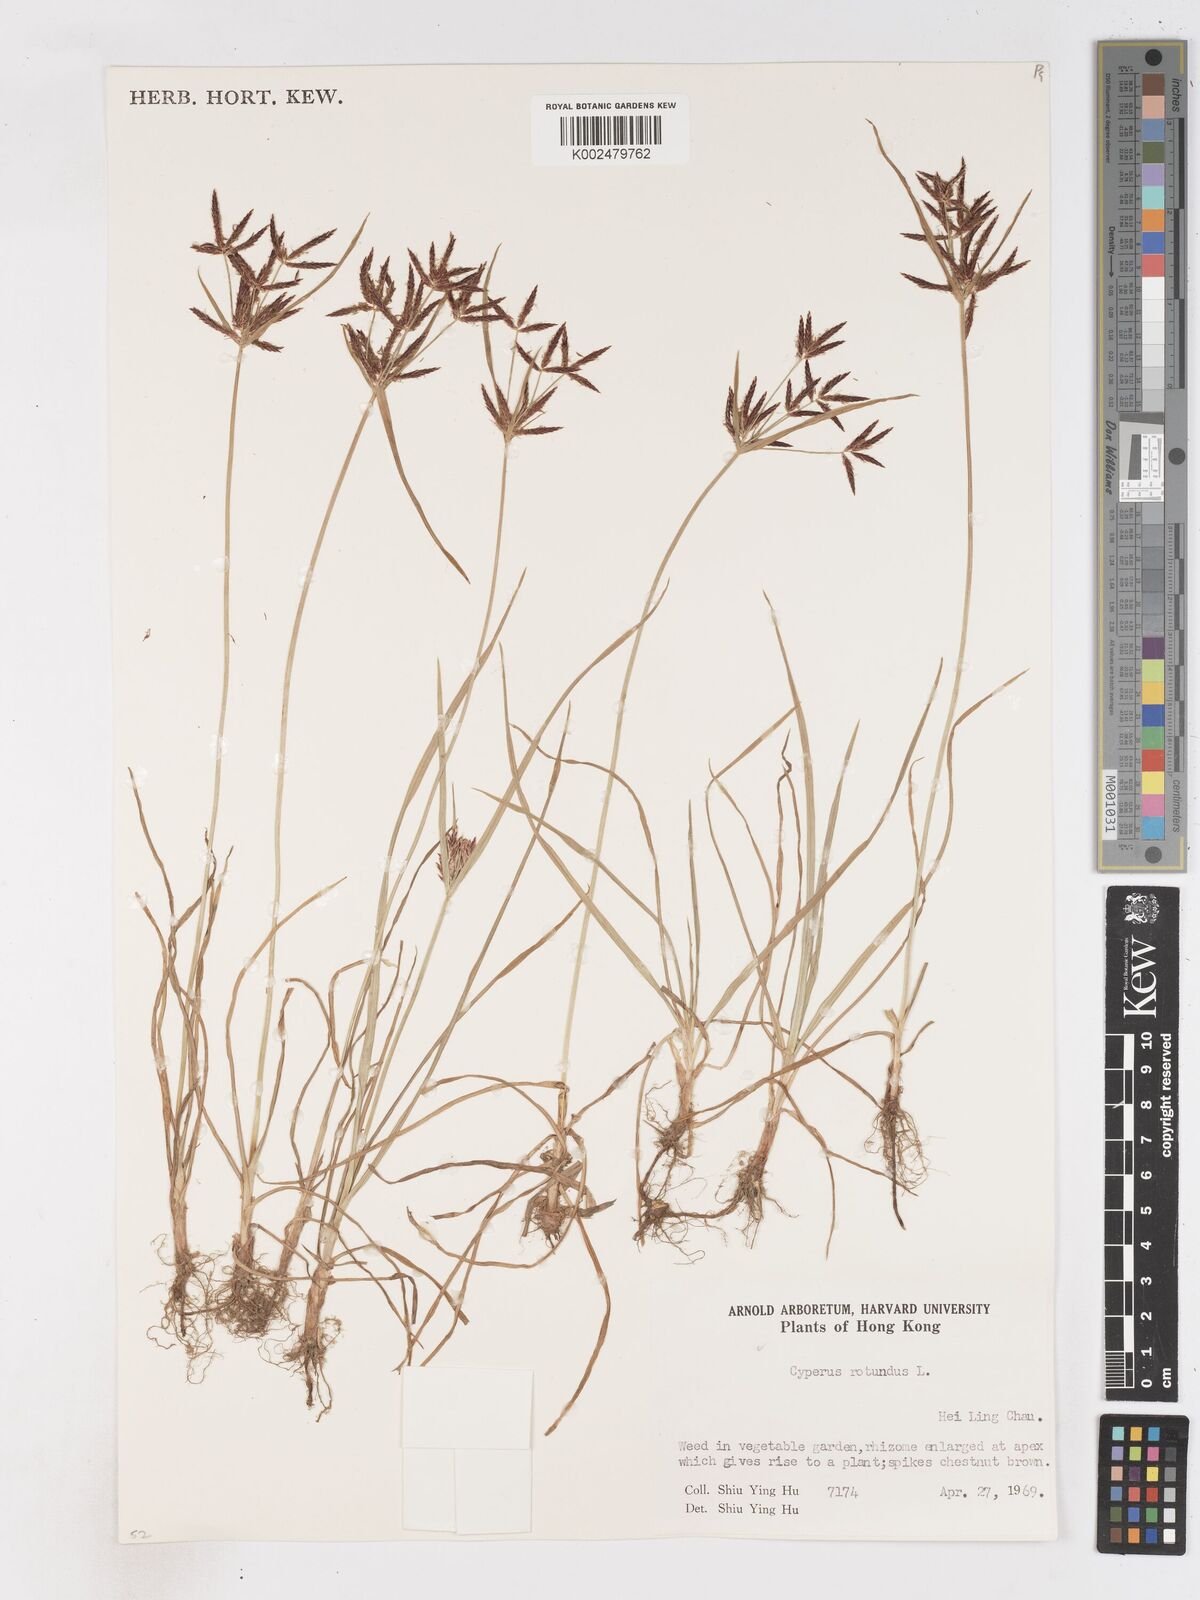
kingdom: Plantae
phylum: Tracheophyta
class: Liliopsida
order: Poales
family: Cyperaceae
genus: Cyperus
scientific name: Cyperus rotundus
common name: Nutgrass
